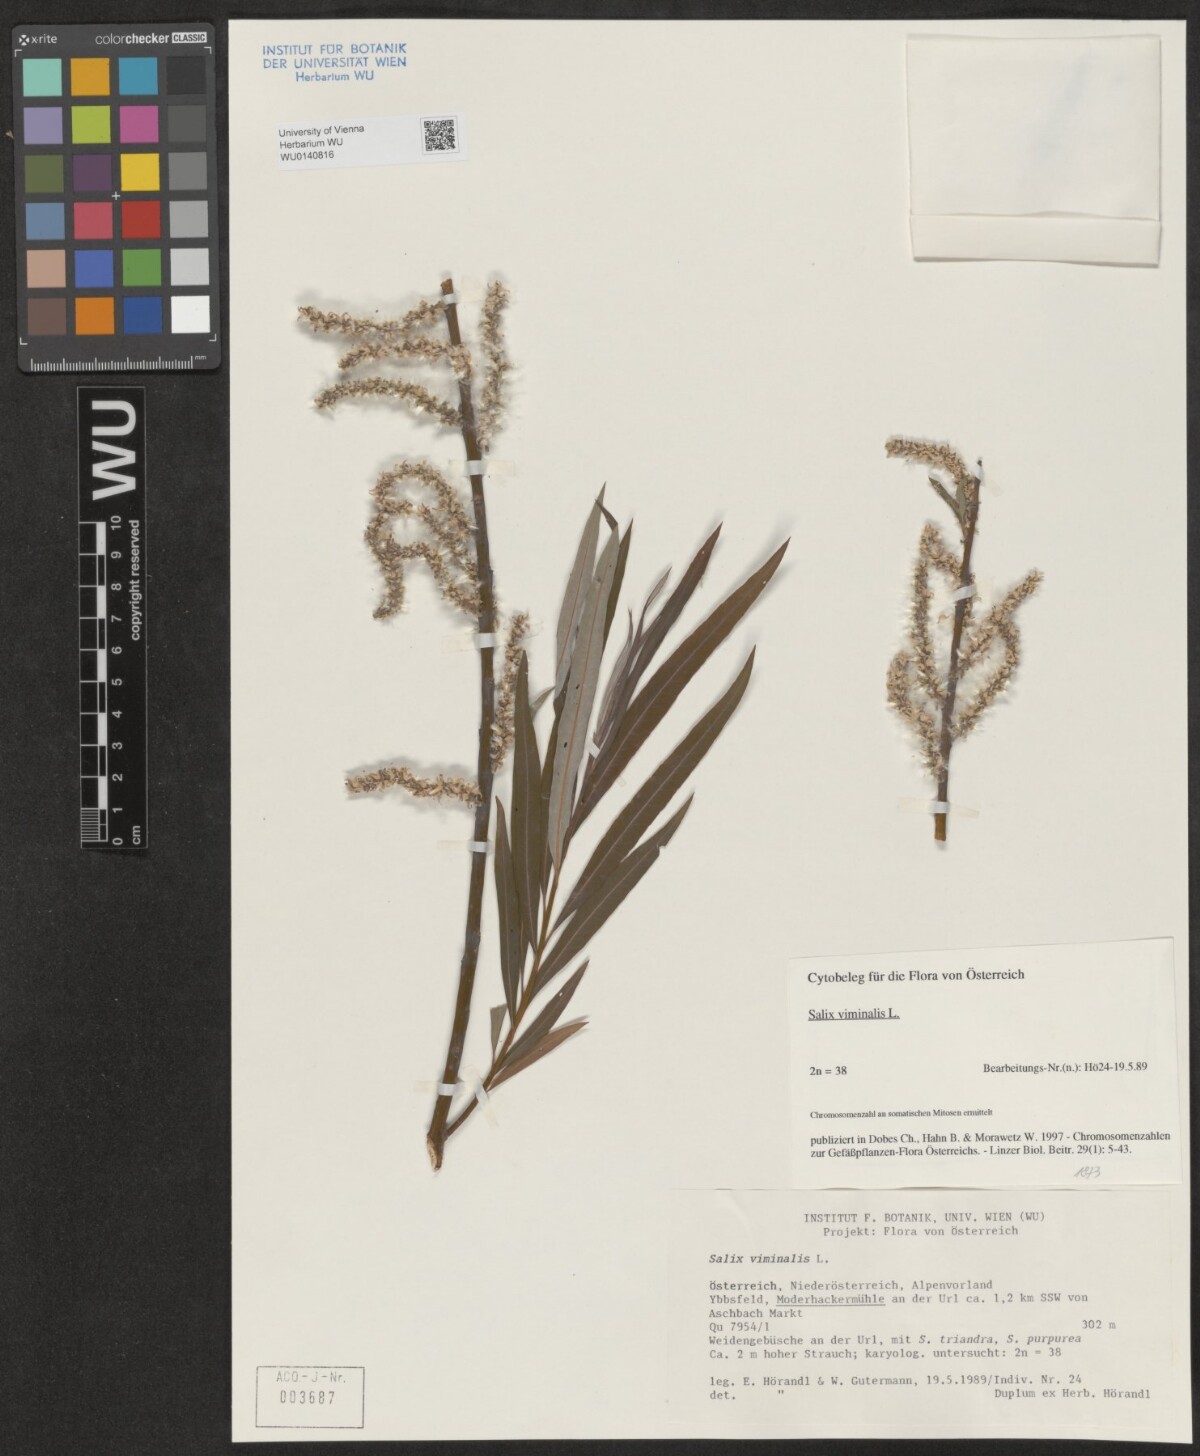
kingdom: Plantae
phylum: Tracheophyta
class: Magnoliopsida
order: Malpighiales
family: Salicaceae
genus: Salix
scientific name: Salix viminalis
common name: Osier
